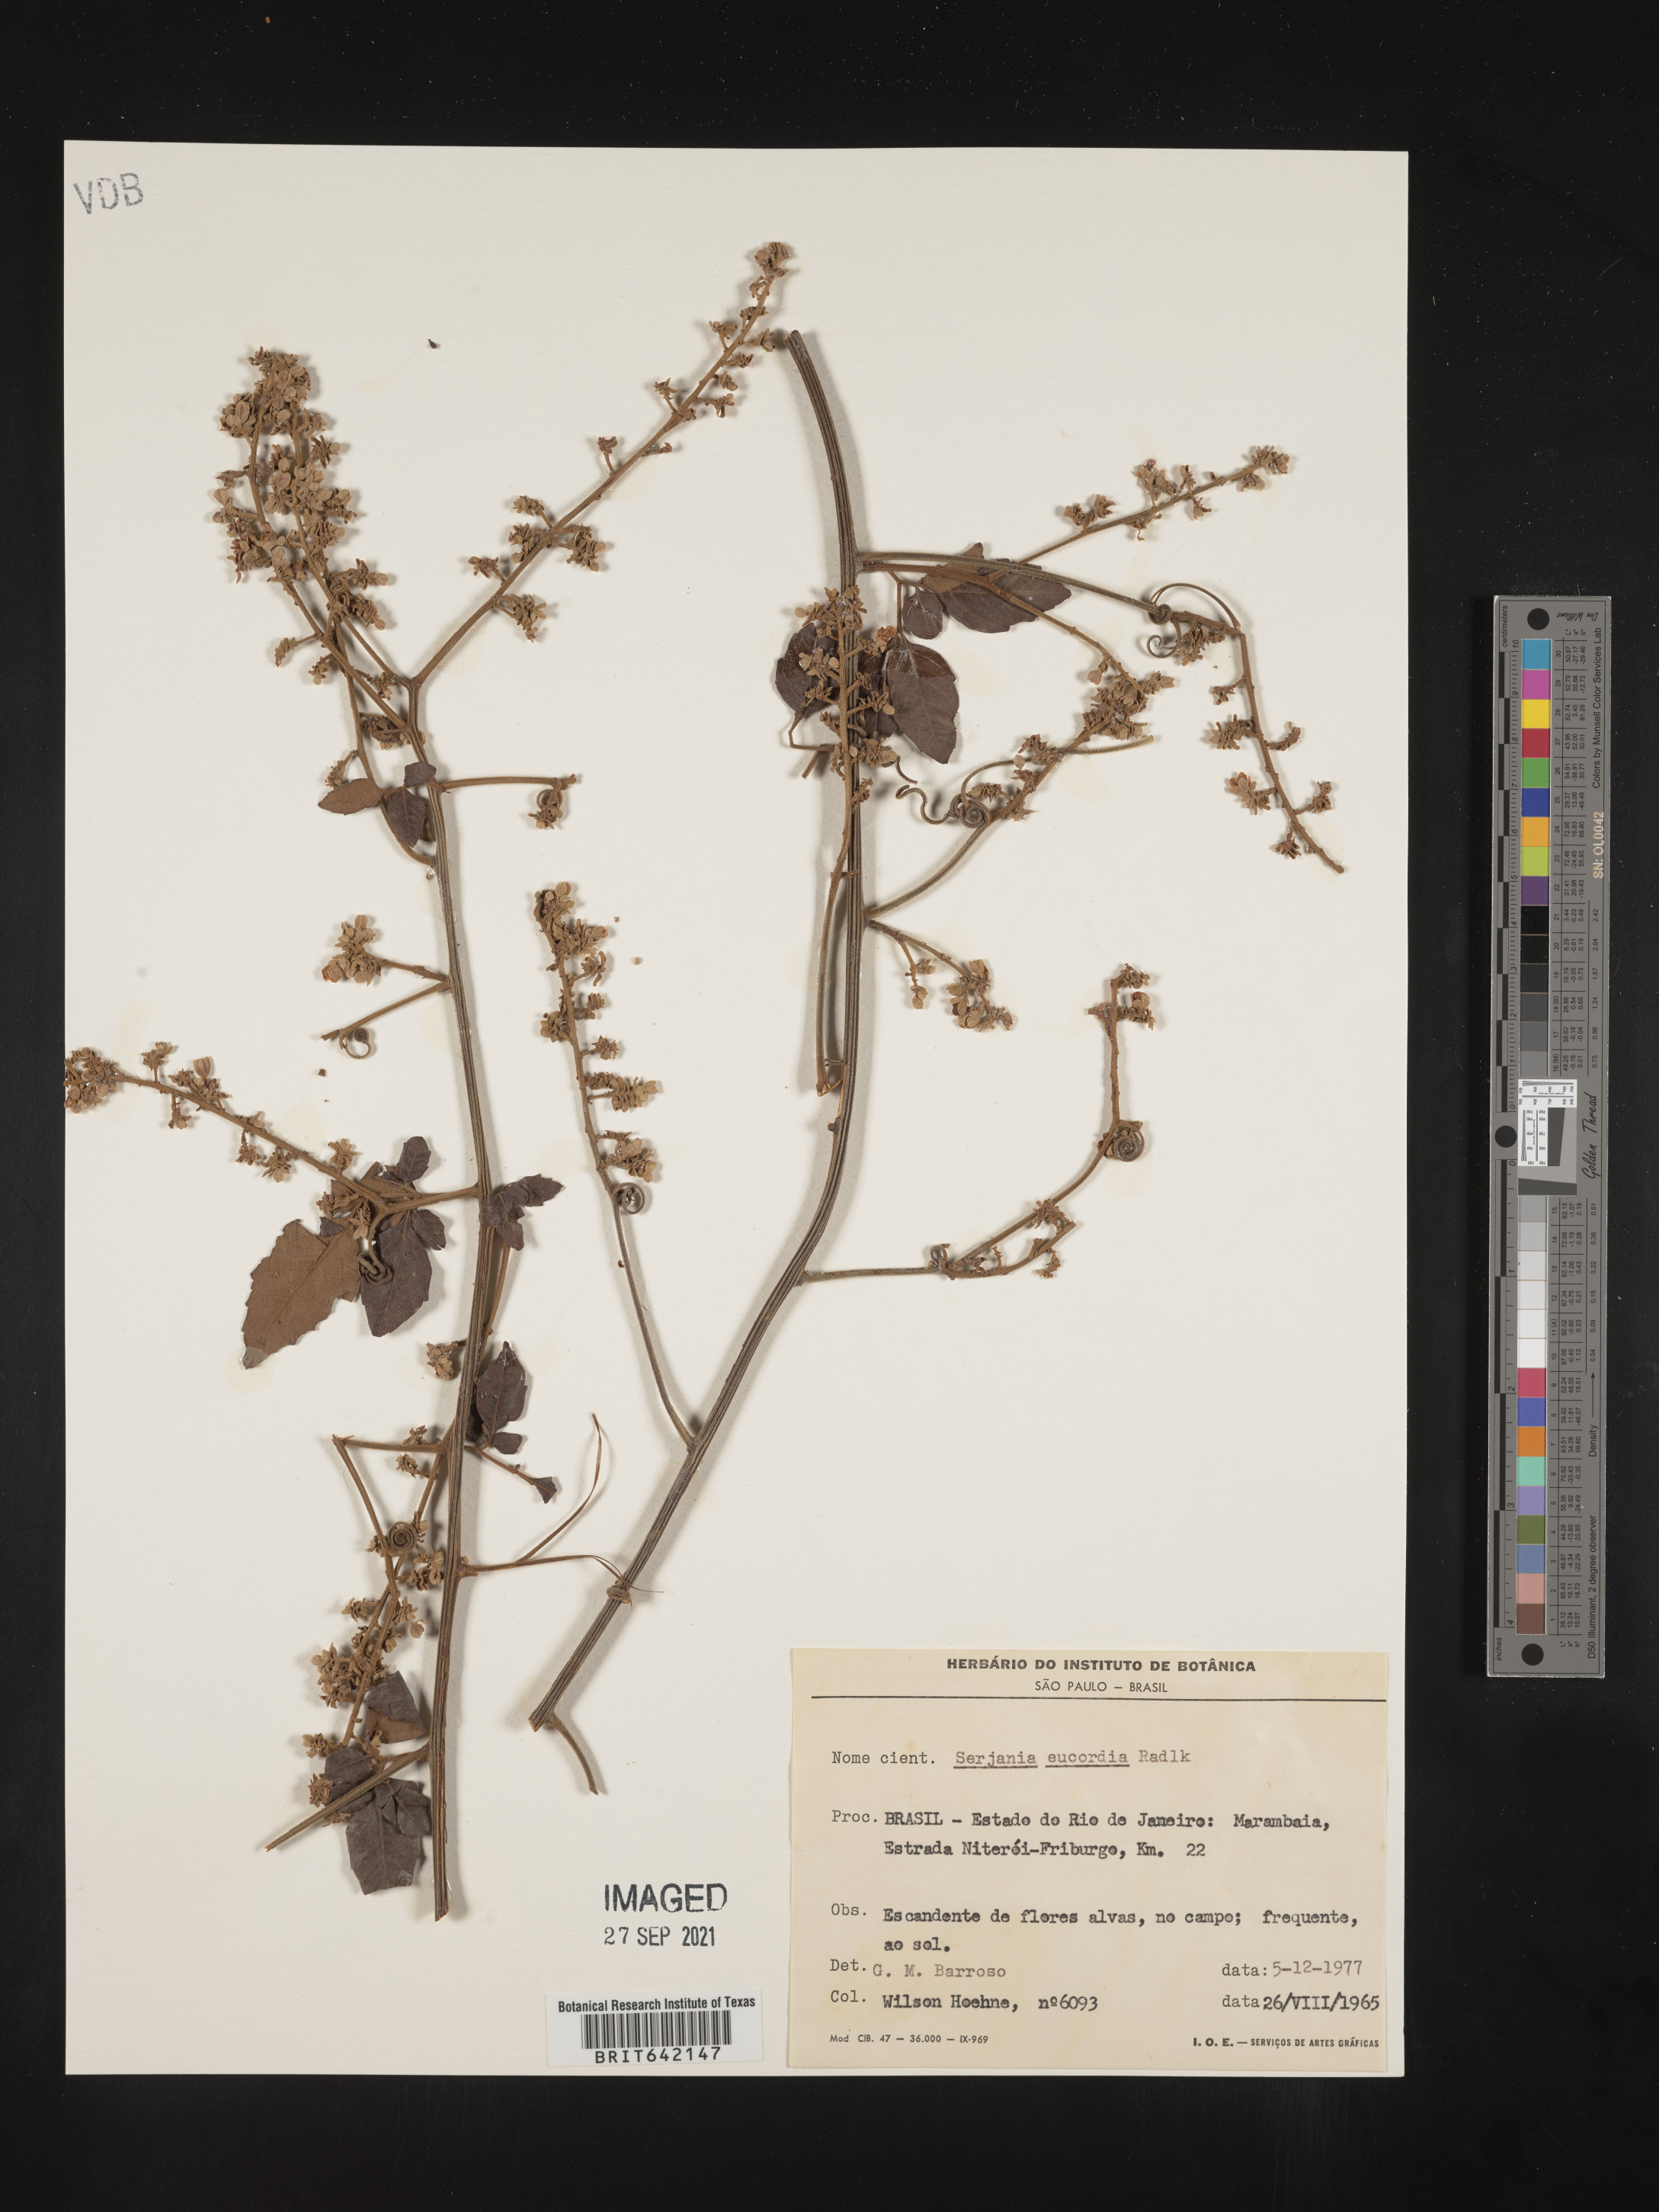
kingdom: Plantae
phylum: Tracheophyta
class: Magnoliopsida
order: Sapindales
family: Sapindaceae
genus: Serjania
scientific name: Serjania
